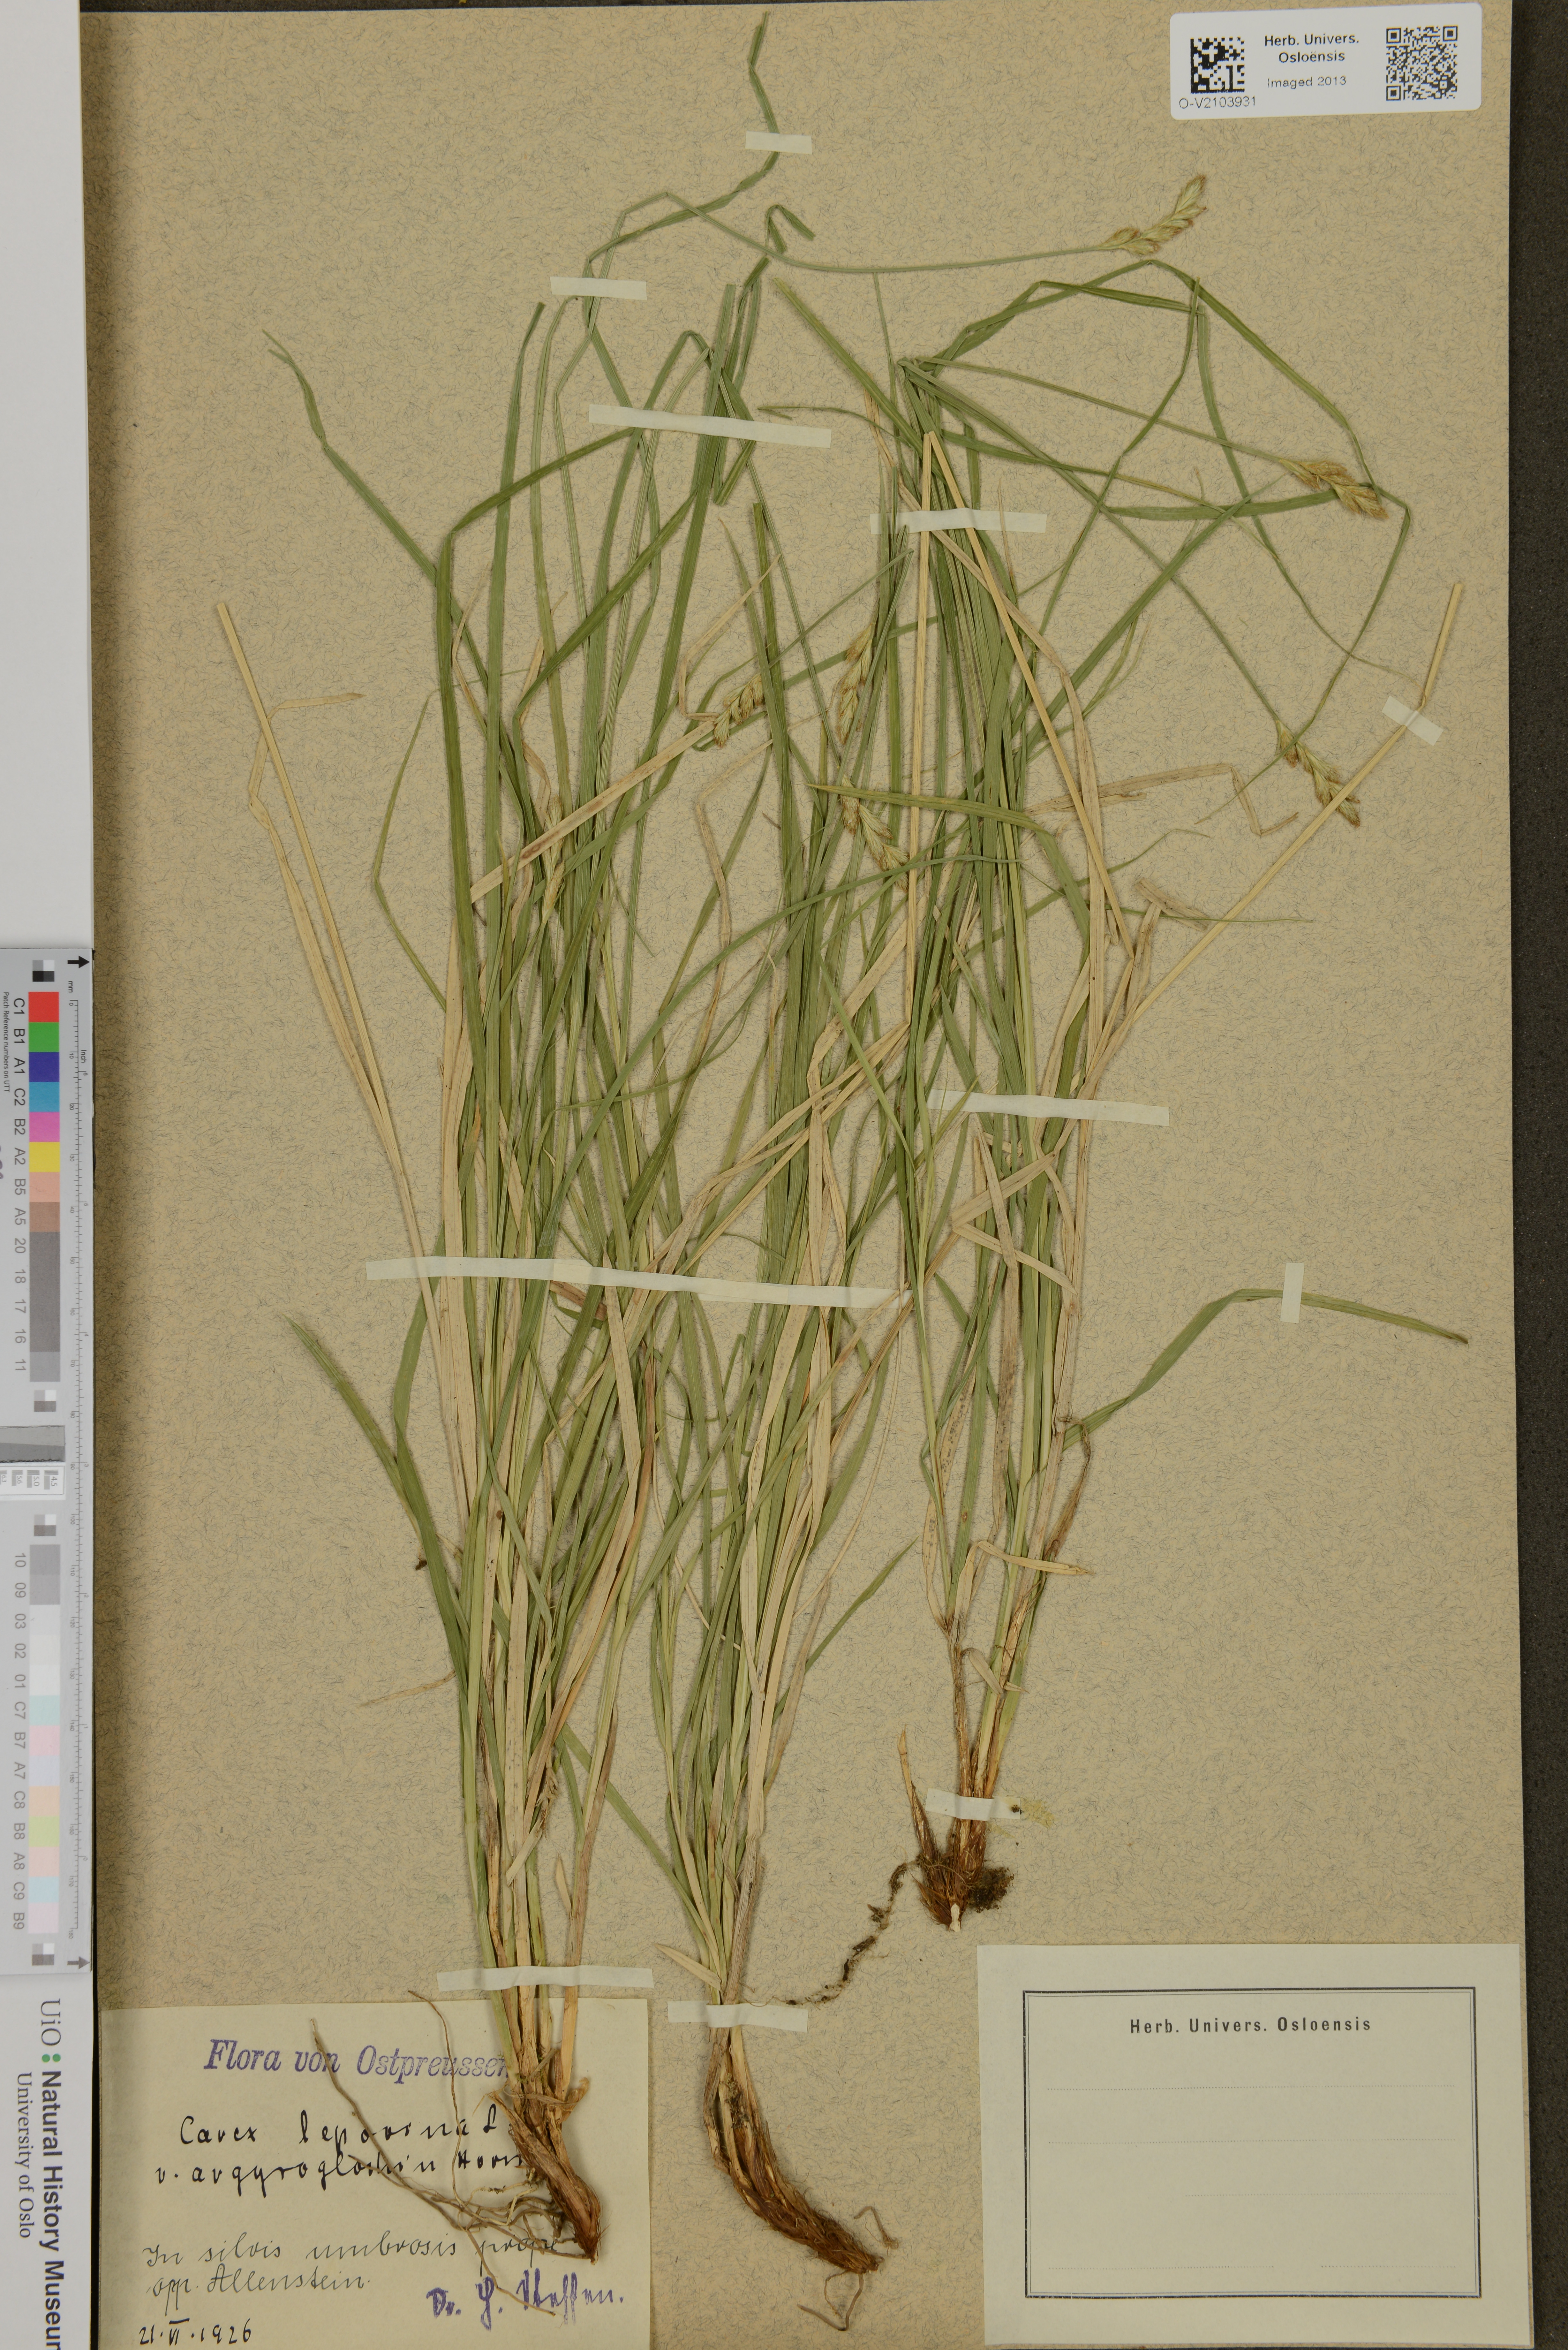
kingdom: Plantae
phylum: Tracheophyta
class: Liliopsida
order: Poales
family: Cyperaceae
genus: Carex
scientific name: Carex leporina
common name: Oval sedge
